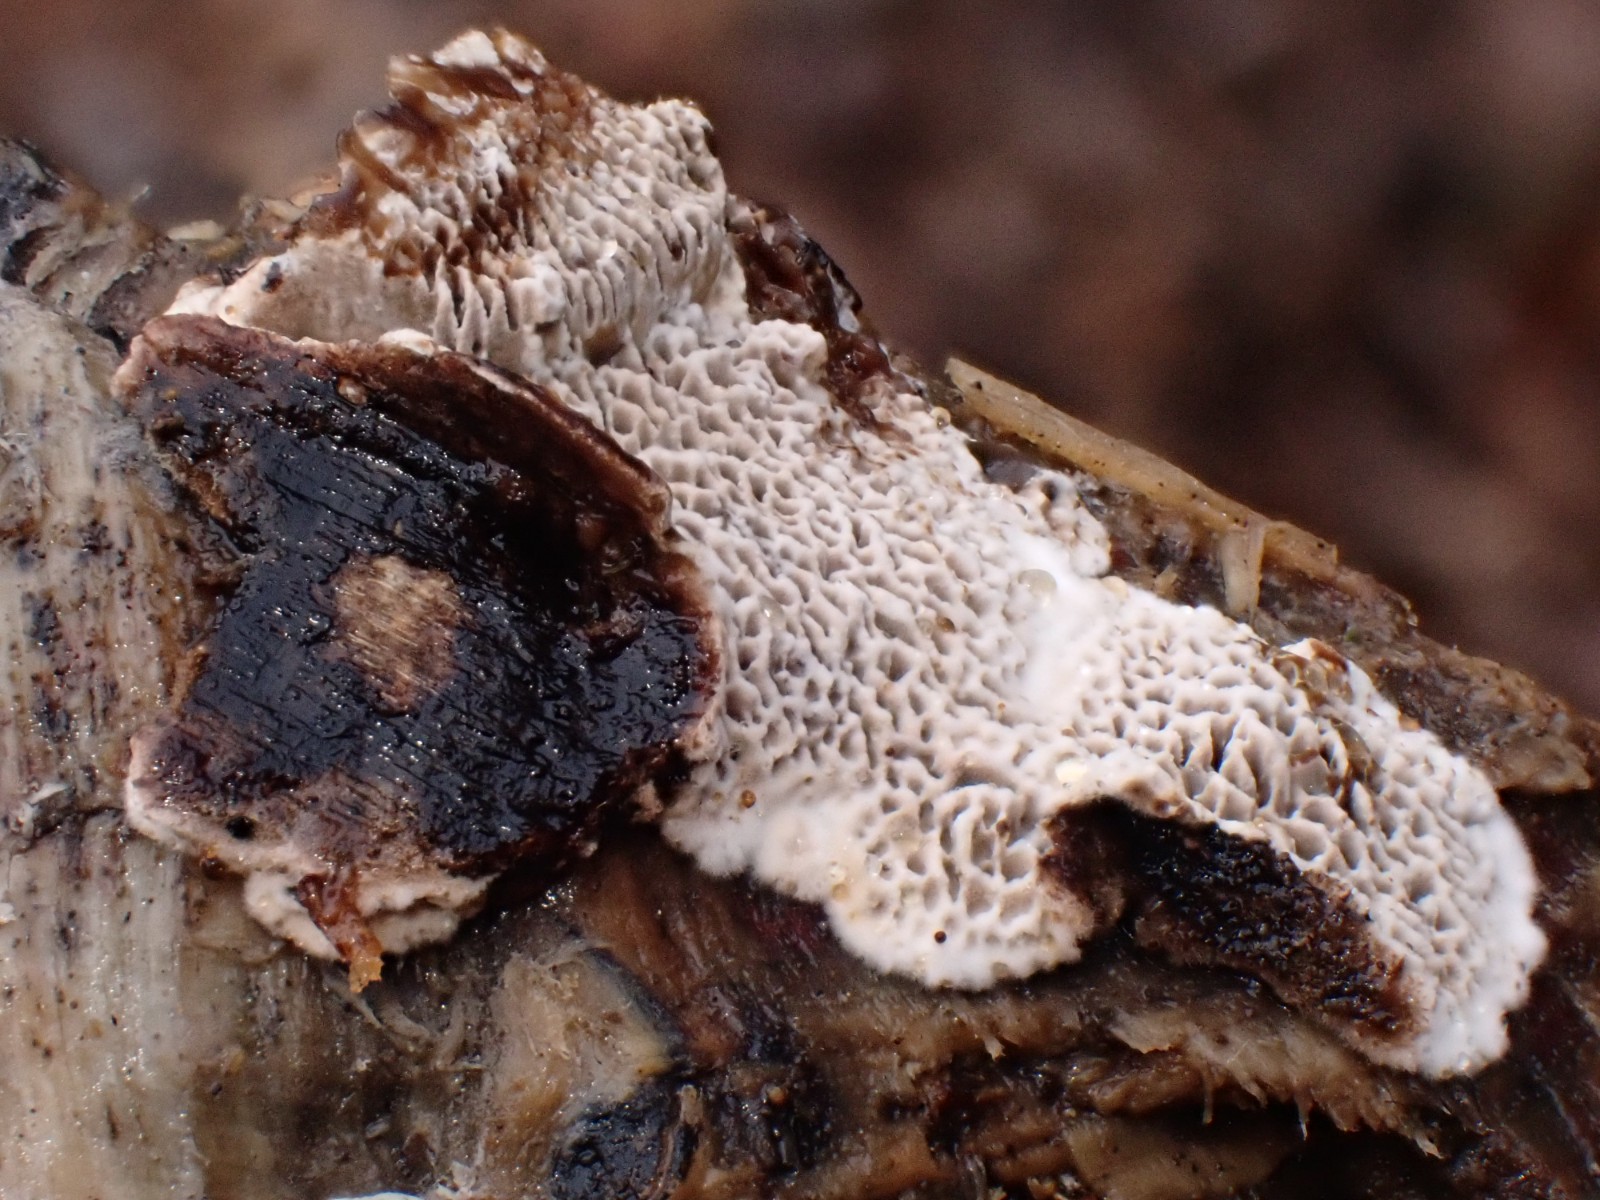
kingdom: Fungi
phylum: Basidiomycota
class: Agaricomycetes
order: Polyporales
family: Polyporaceae
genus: Podofomes
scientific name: Podofomes mollis
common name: blød begporesvamp
